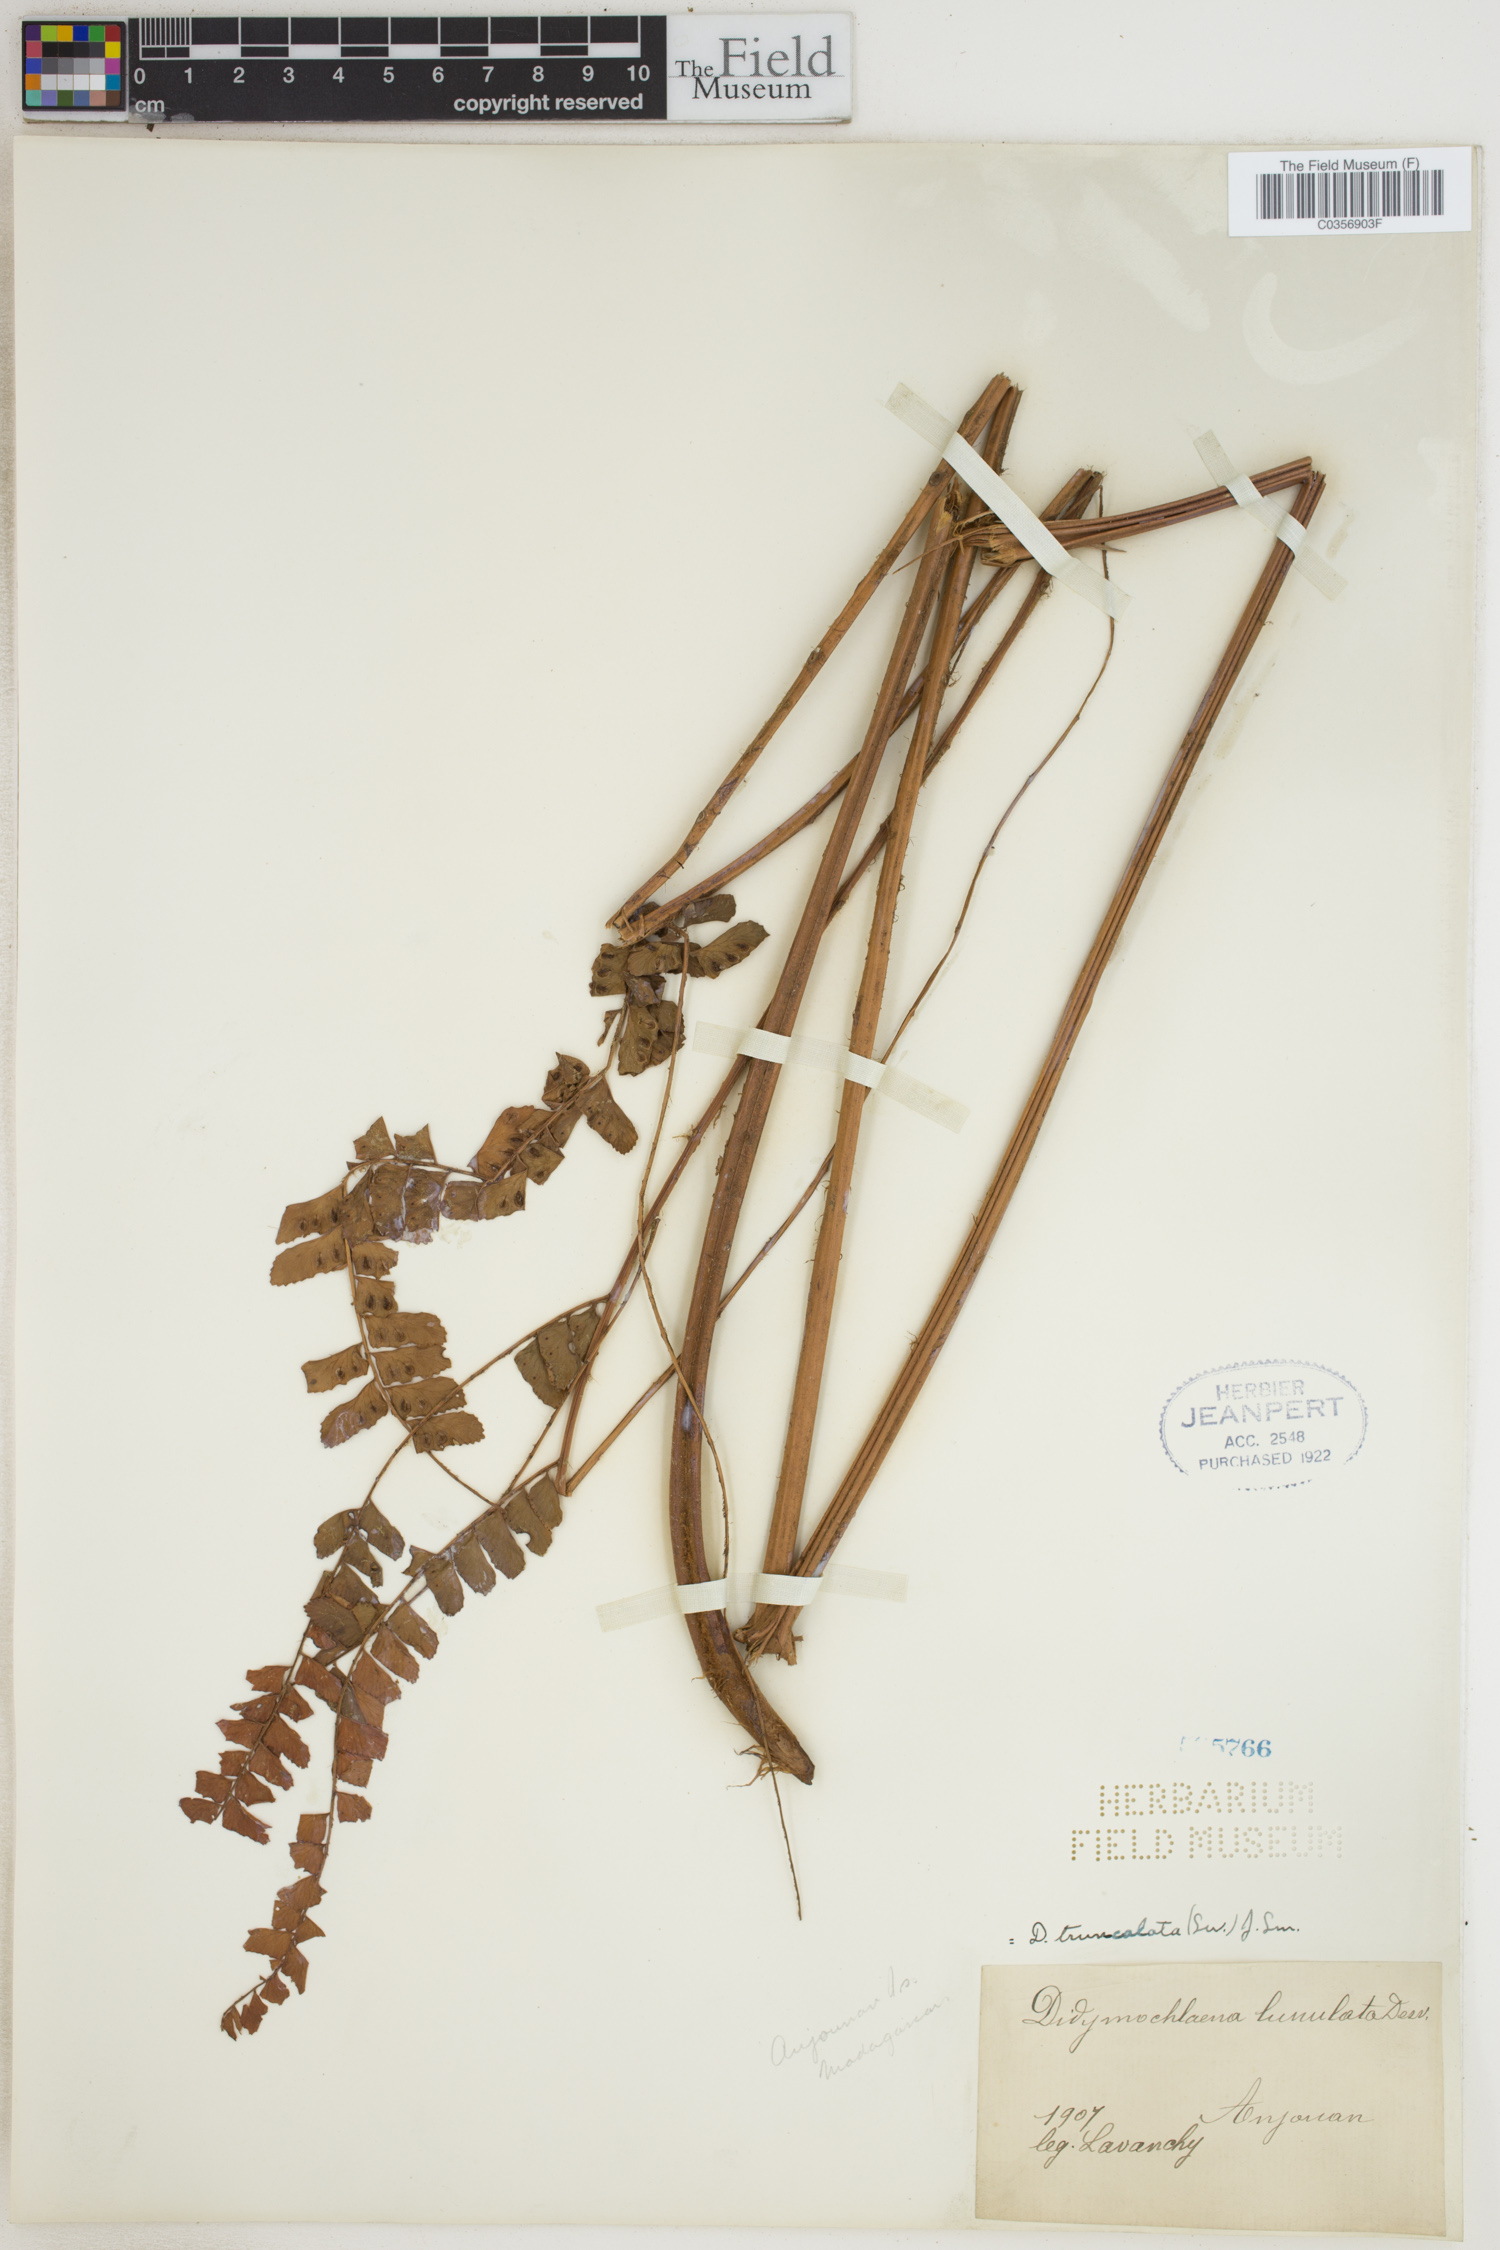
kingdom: Plantae
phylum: Tracheophyta
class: Polypodiopsida
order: Polypodiales
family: Didymochlaenaceae
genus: Didymochlaena
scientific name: Didymochlaena truncatula
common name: Mahogany fern
